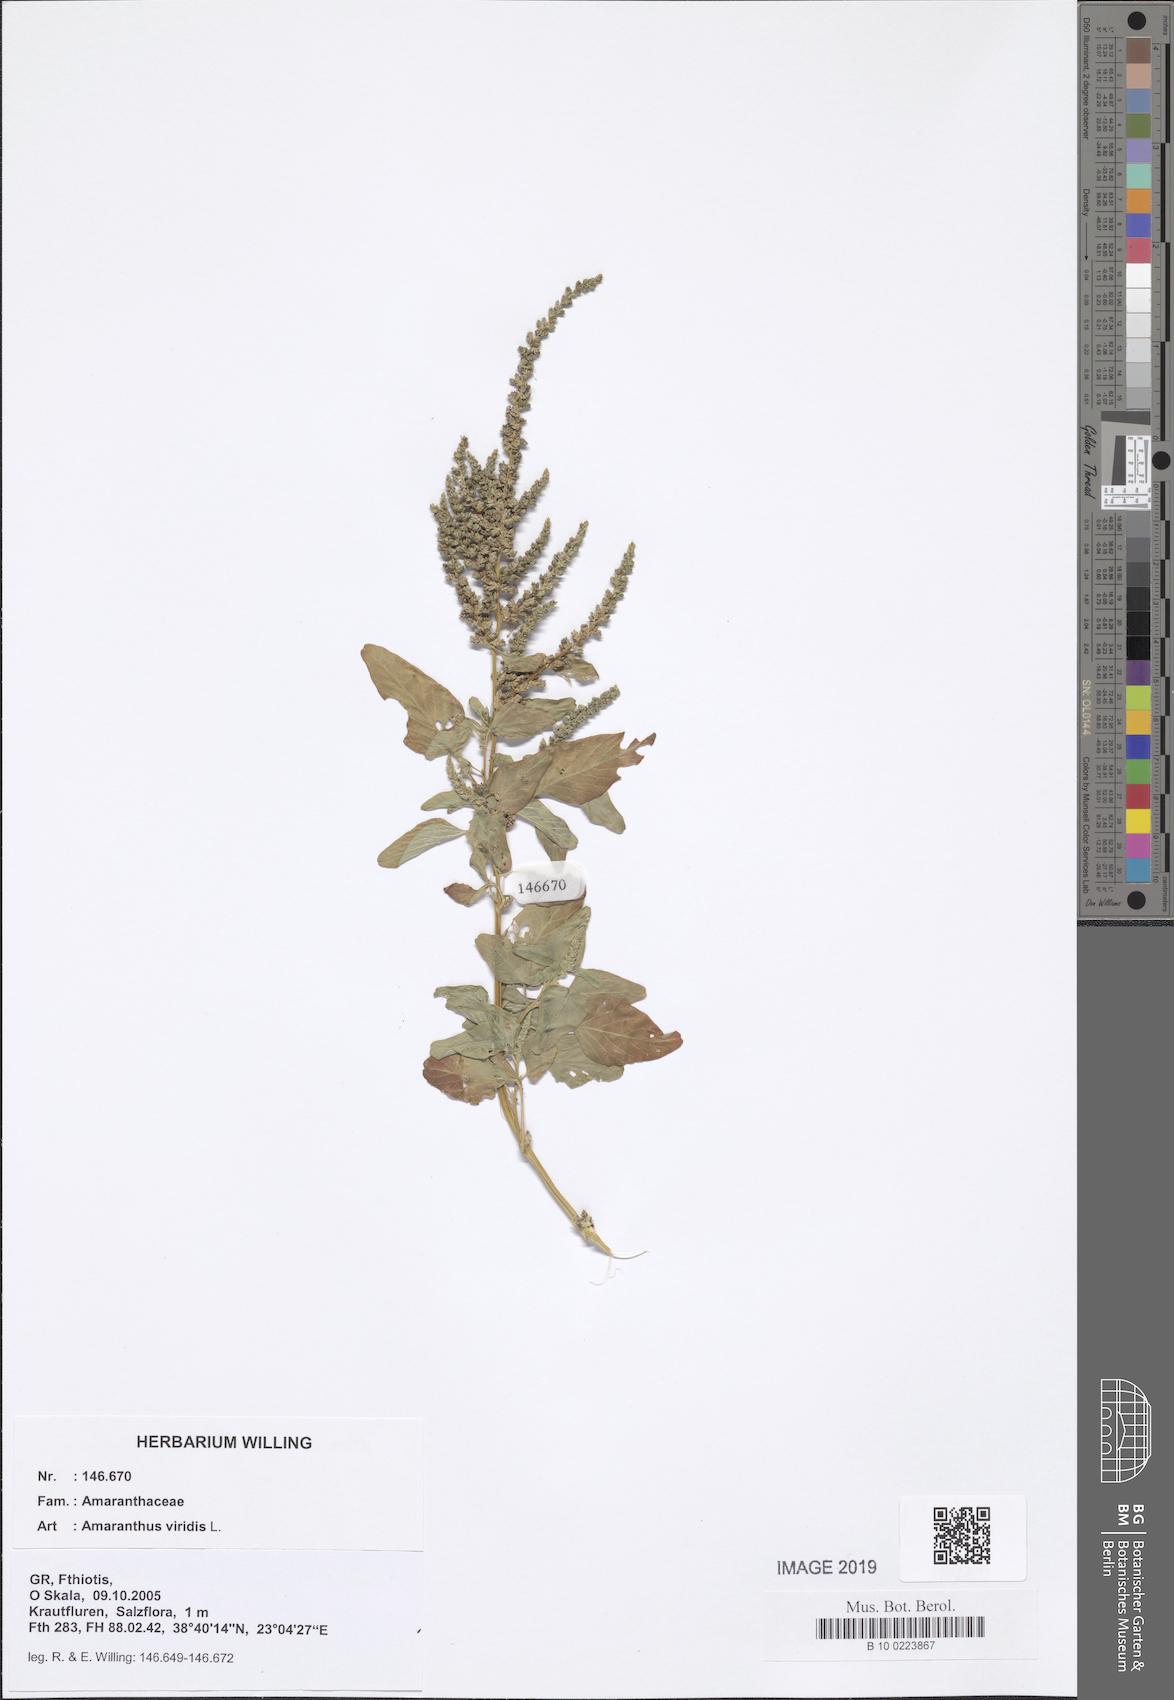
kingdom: Plantae
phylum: Tracheophyta
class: Magnoliopsida
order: Caryophyllales
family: Amaranthaceae
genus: Amaranthus
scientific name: Amaranthus viridis
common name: Slender amaranth
